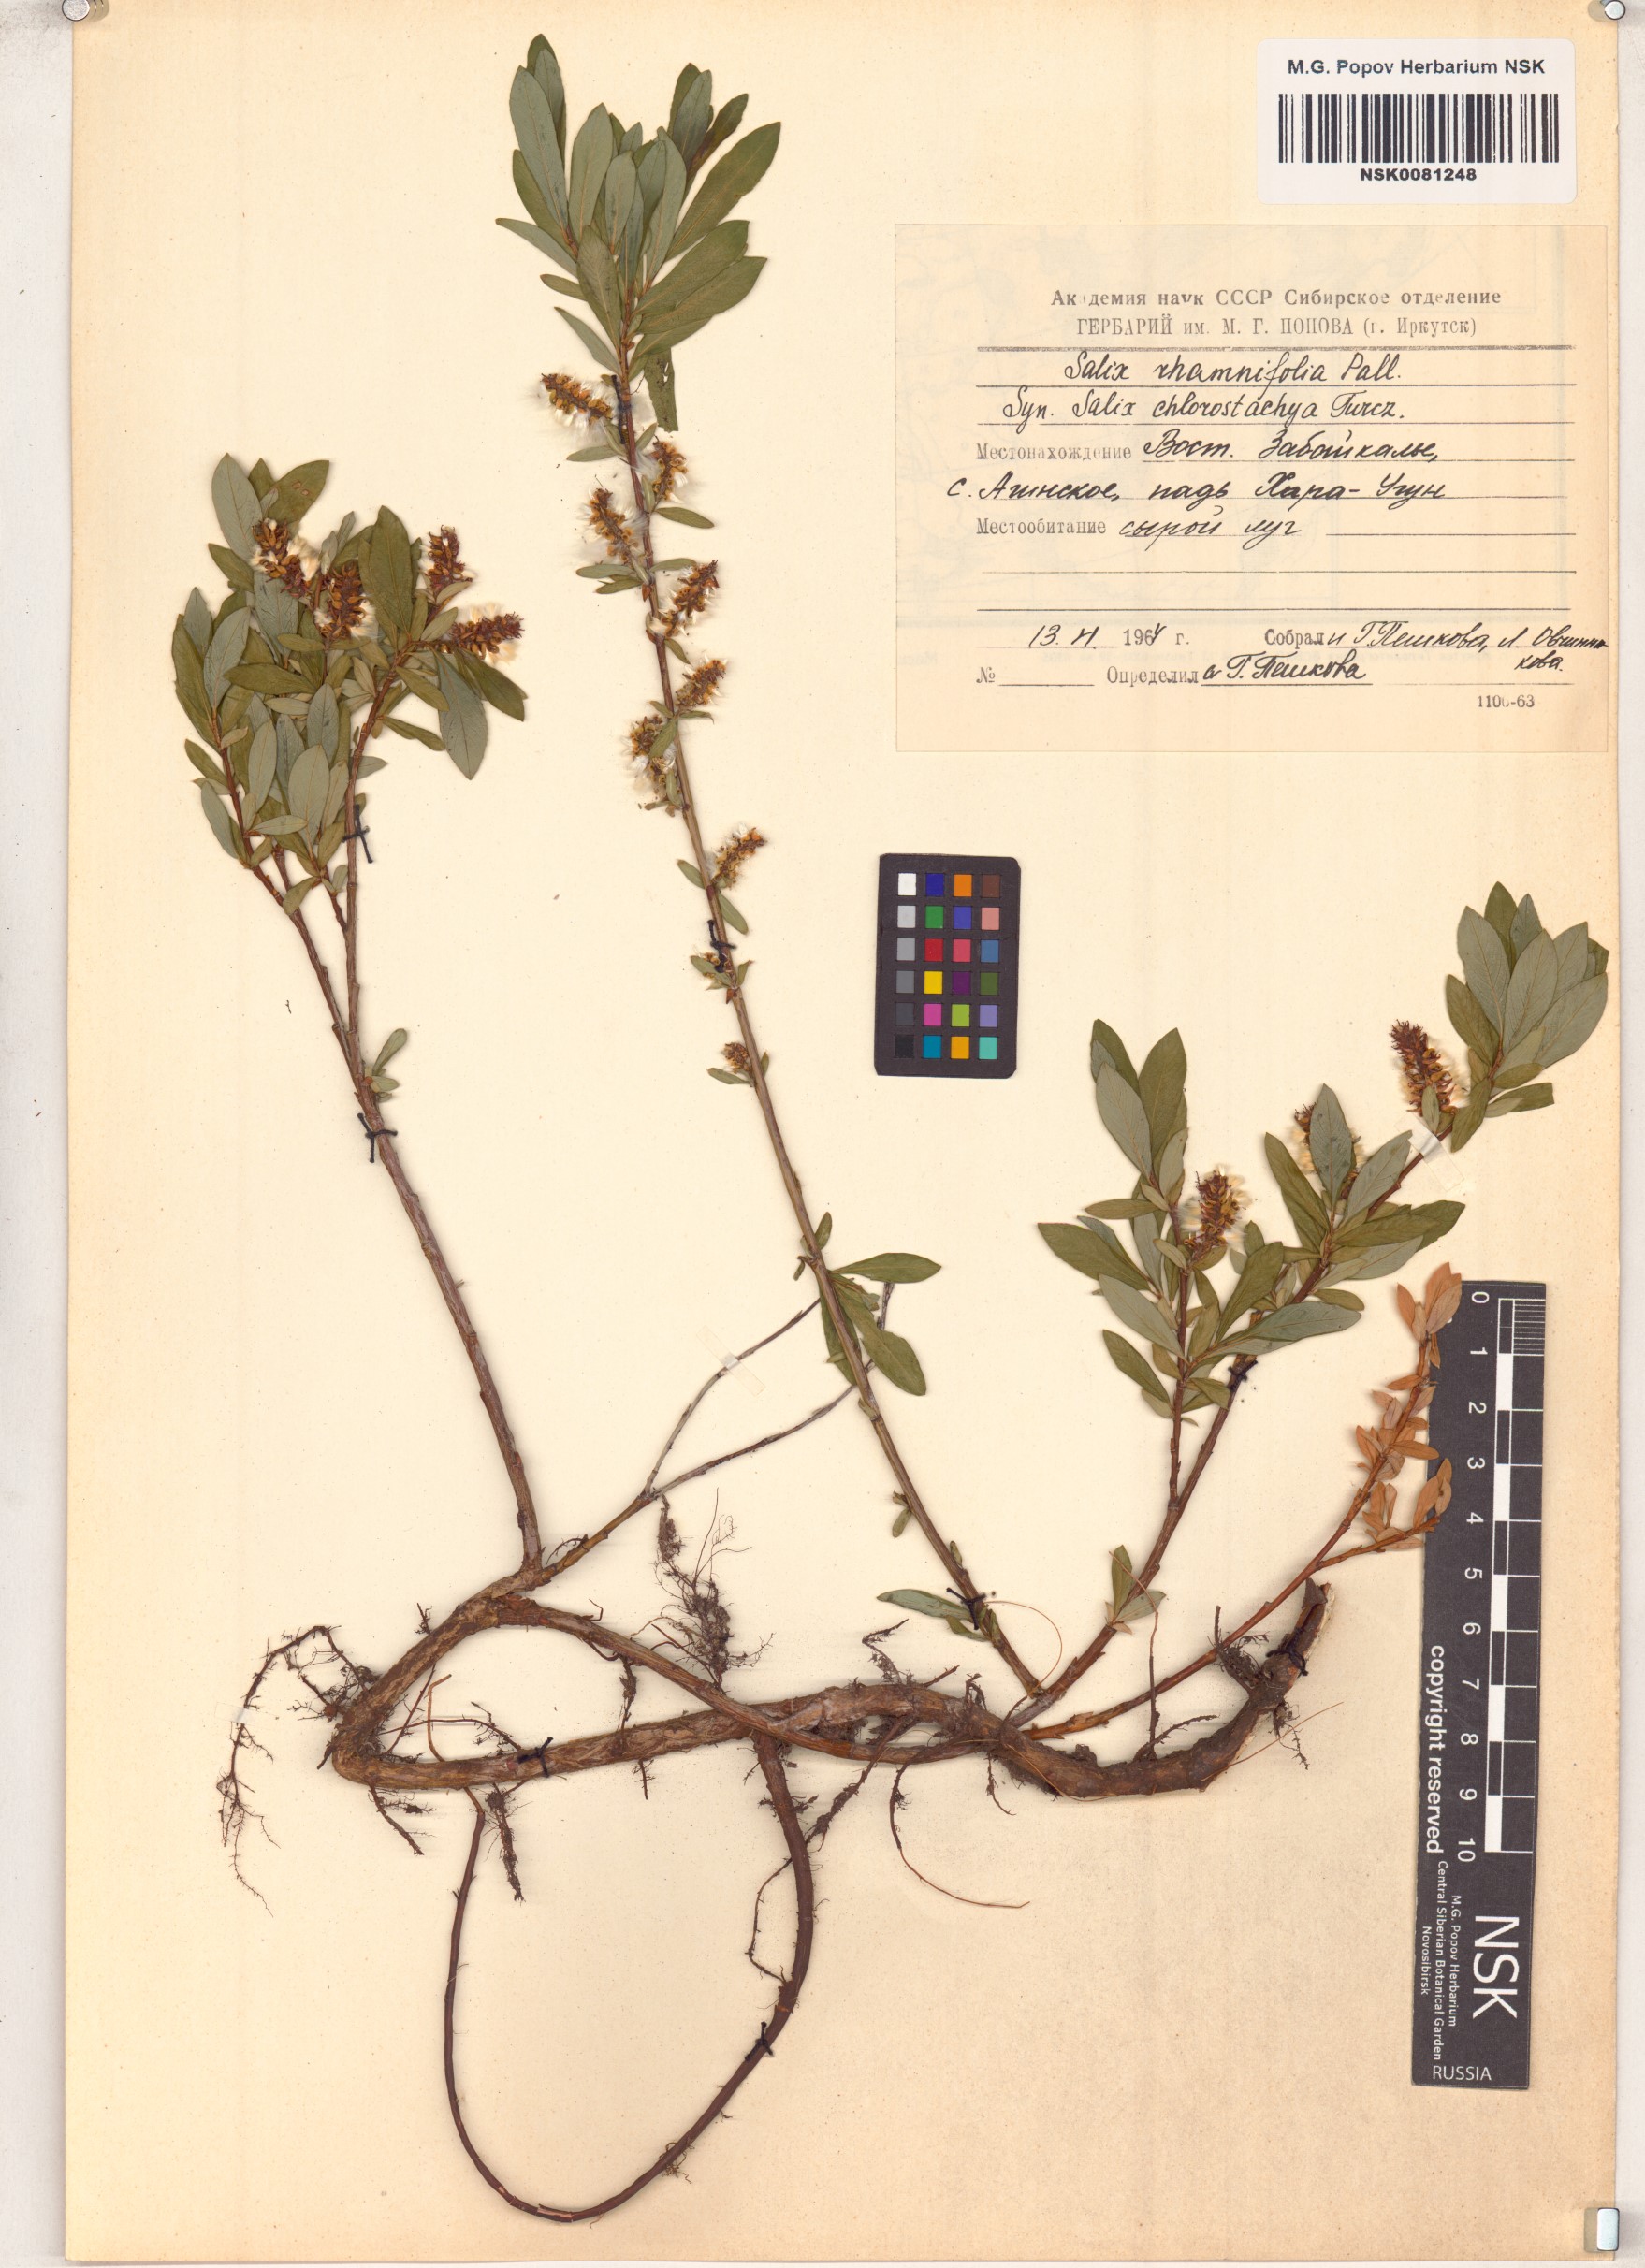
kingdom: Plantae
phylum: Tracheophyta
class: Magnoliopsida
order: Malpighiales
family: Salicaceae
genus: Salix
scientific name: Salix rhamnifolia
